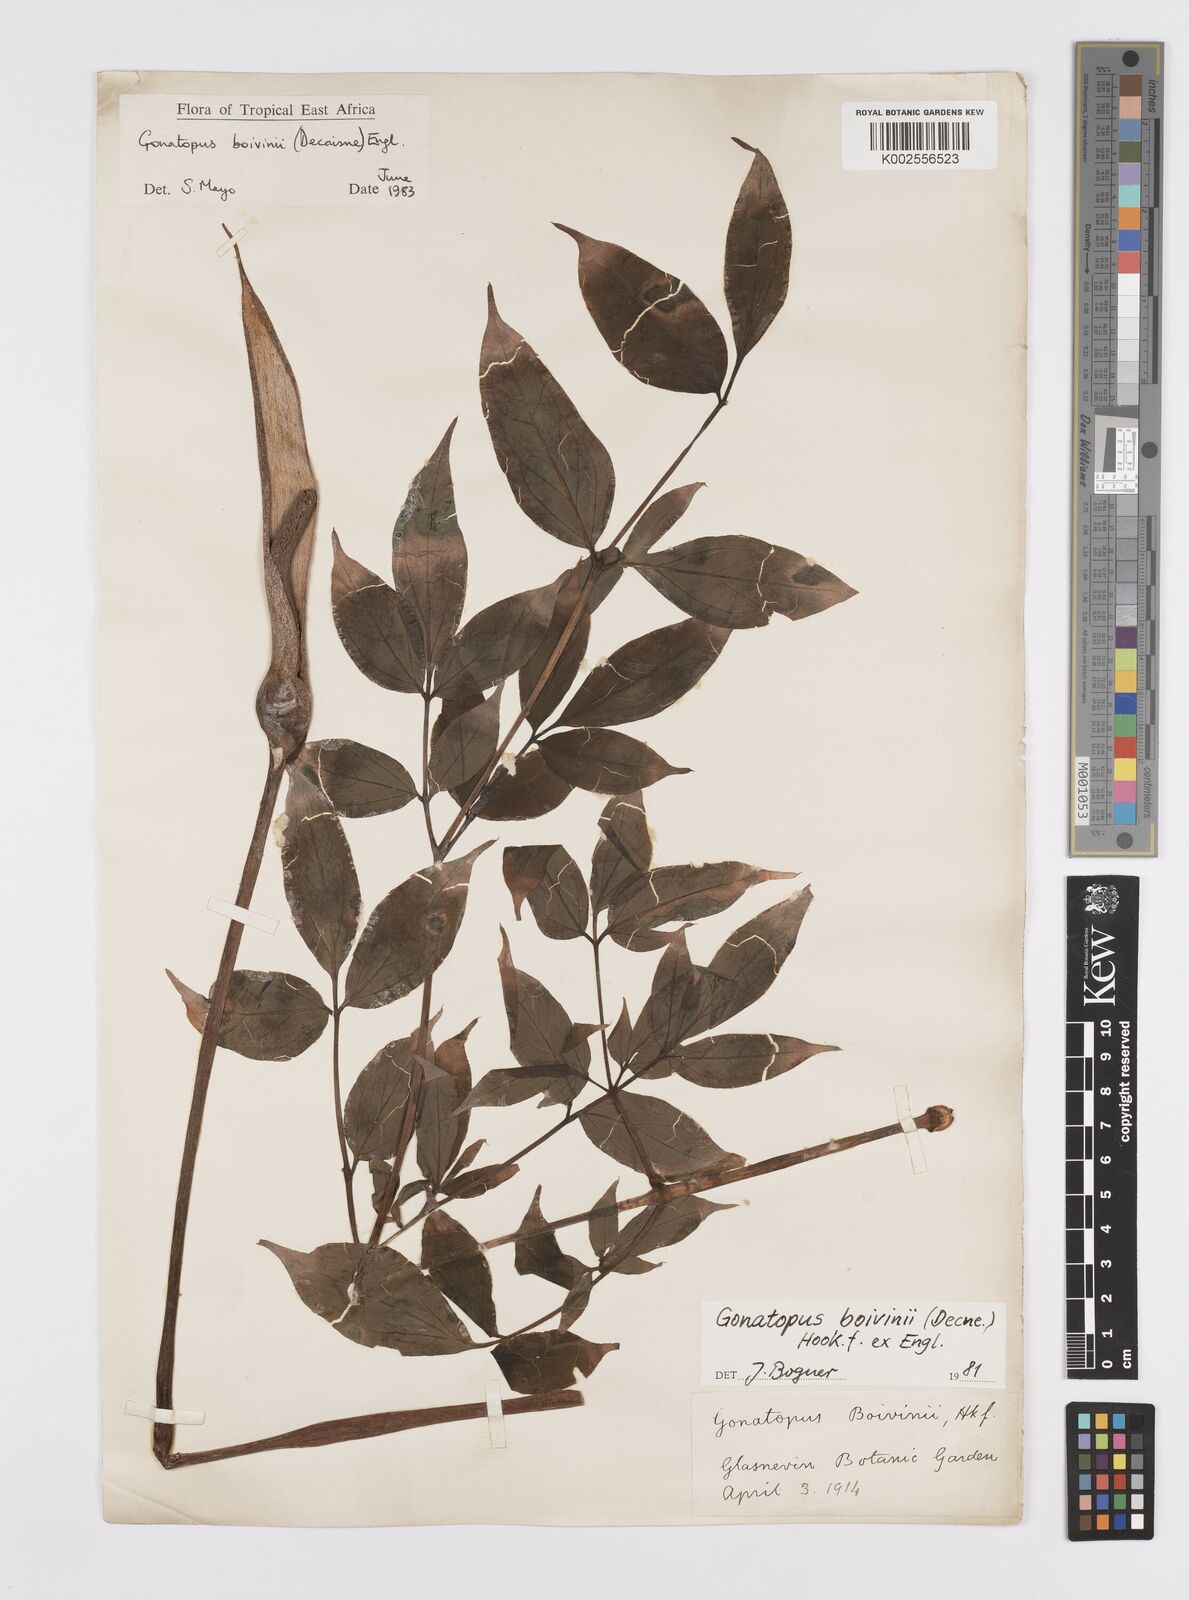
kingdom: Plantae
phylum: Tracheophyta
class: Liliopsida
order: Alismatales
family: Araceae
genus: Gonatopus
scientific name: Gonatopus boivinii
